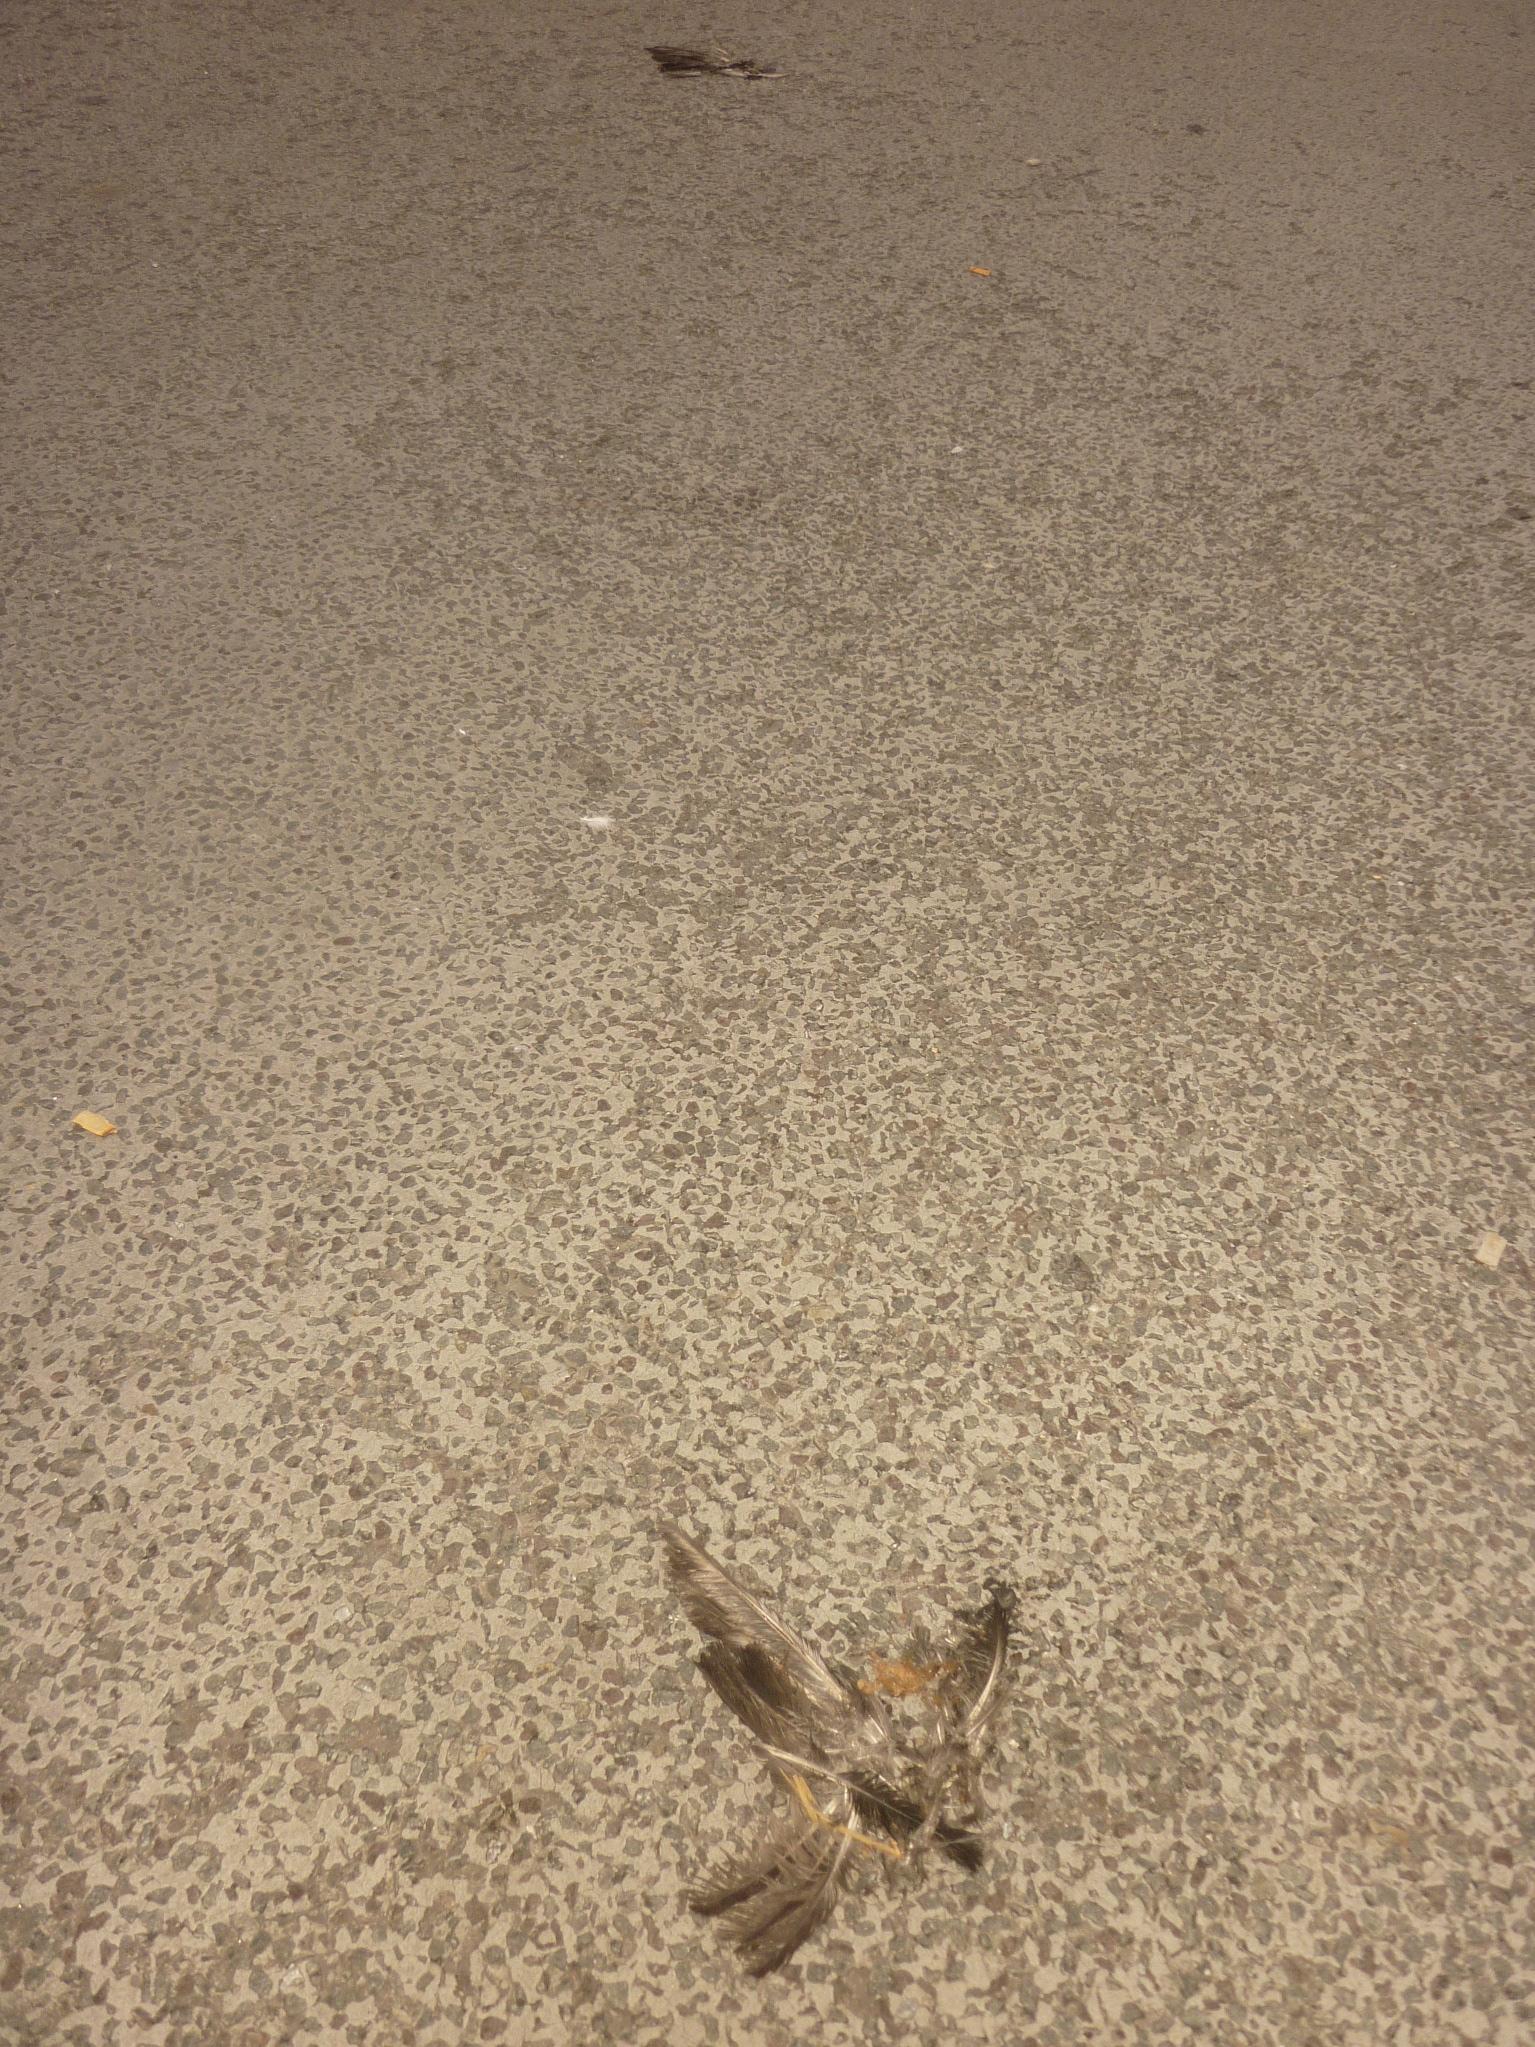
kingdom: Animalia
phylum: Chordata
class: Aves
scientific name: Aves
